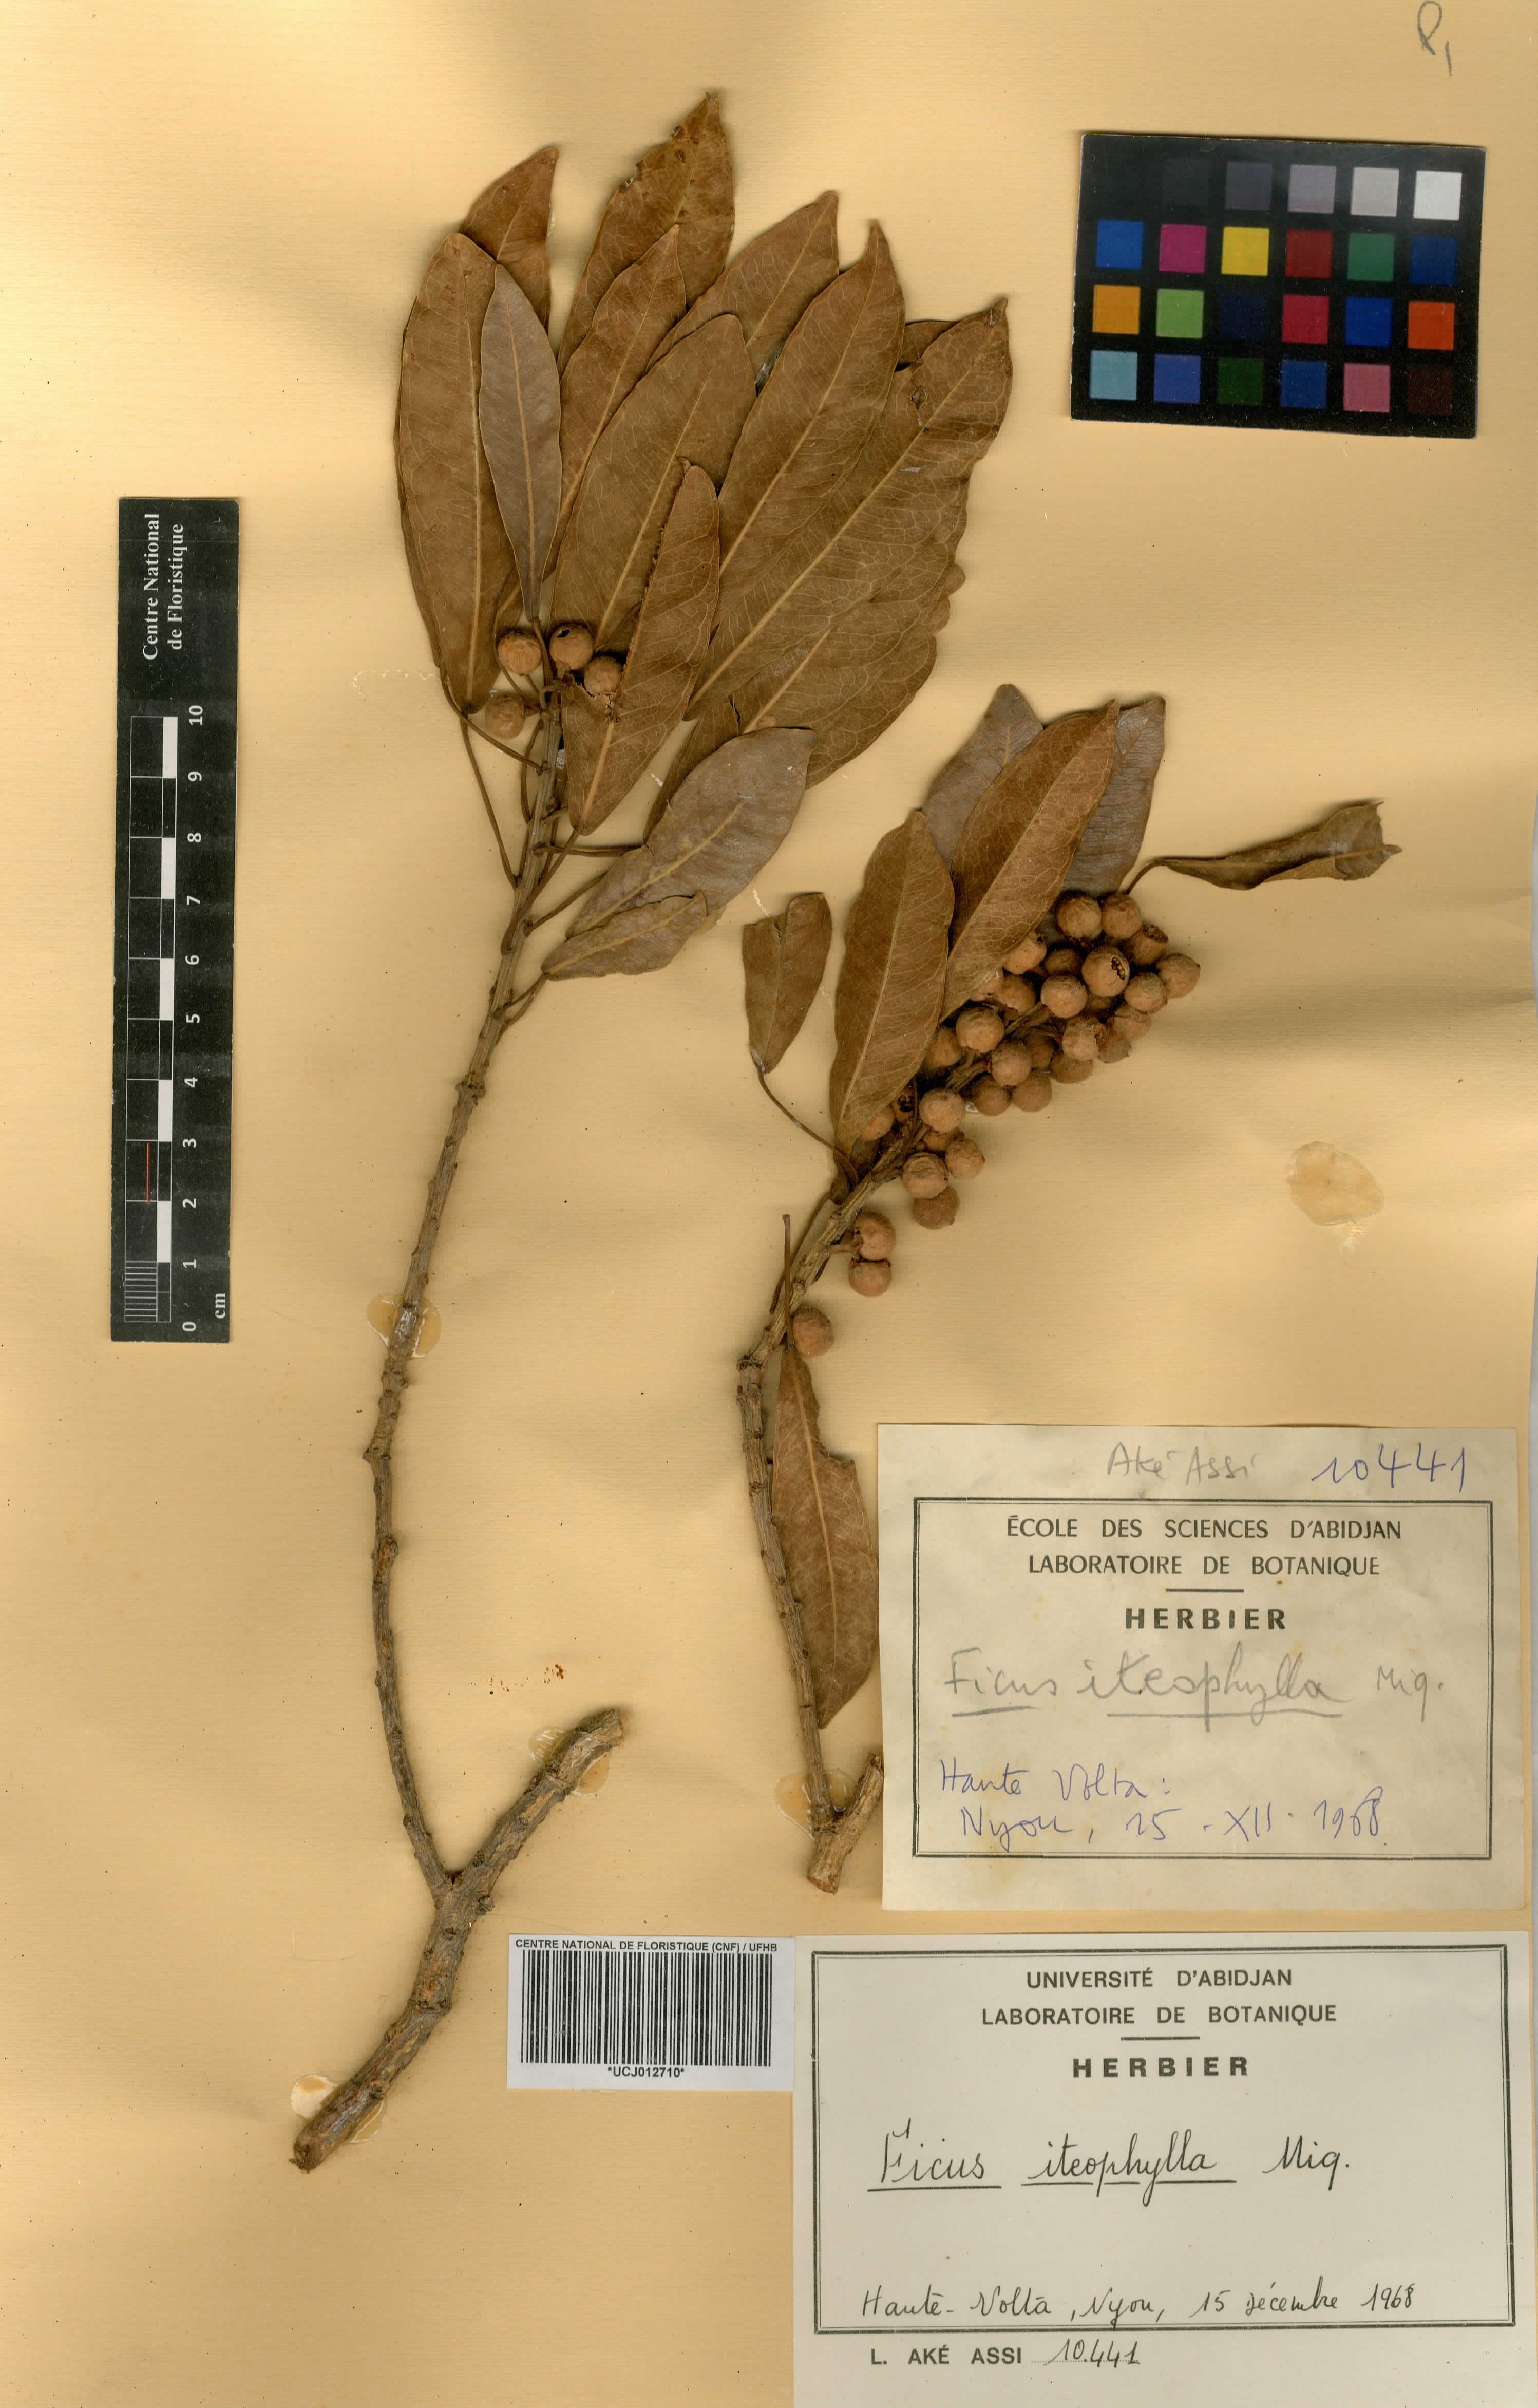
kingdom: Plantae
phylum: Tracheophyta
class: Magnoliopsida
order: Rosales
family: Moraceae
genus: Ficus
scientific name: Ficus thonningii
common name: Fig
